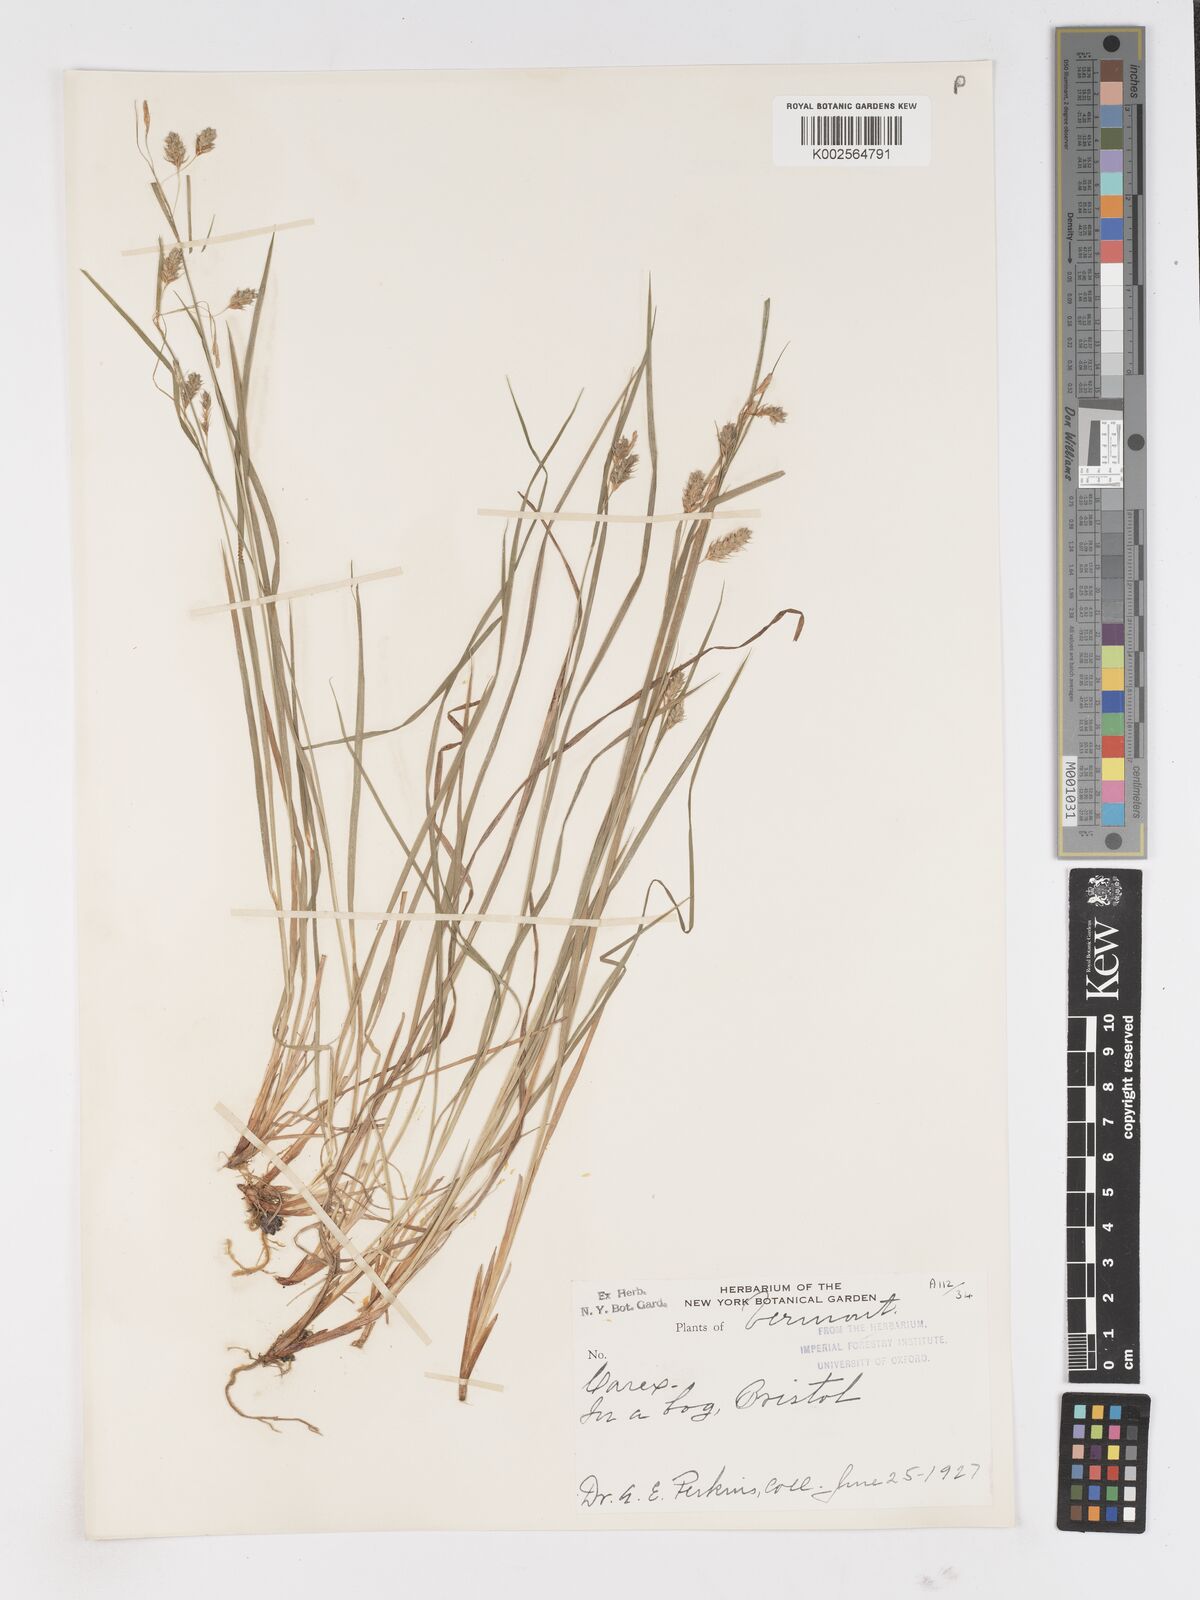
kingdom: Plantae
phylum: Tracheophyta
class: Liliopsida
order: Poales
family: Cyperaceae
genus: Carex
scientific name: Carex
